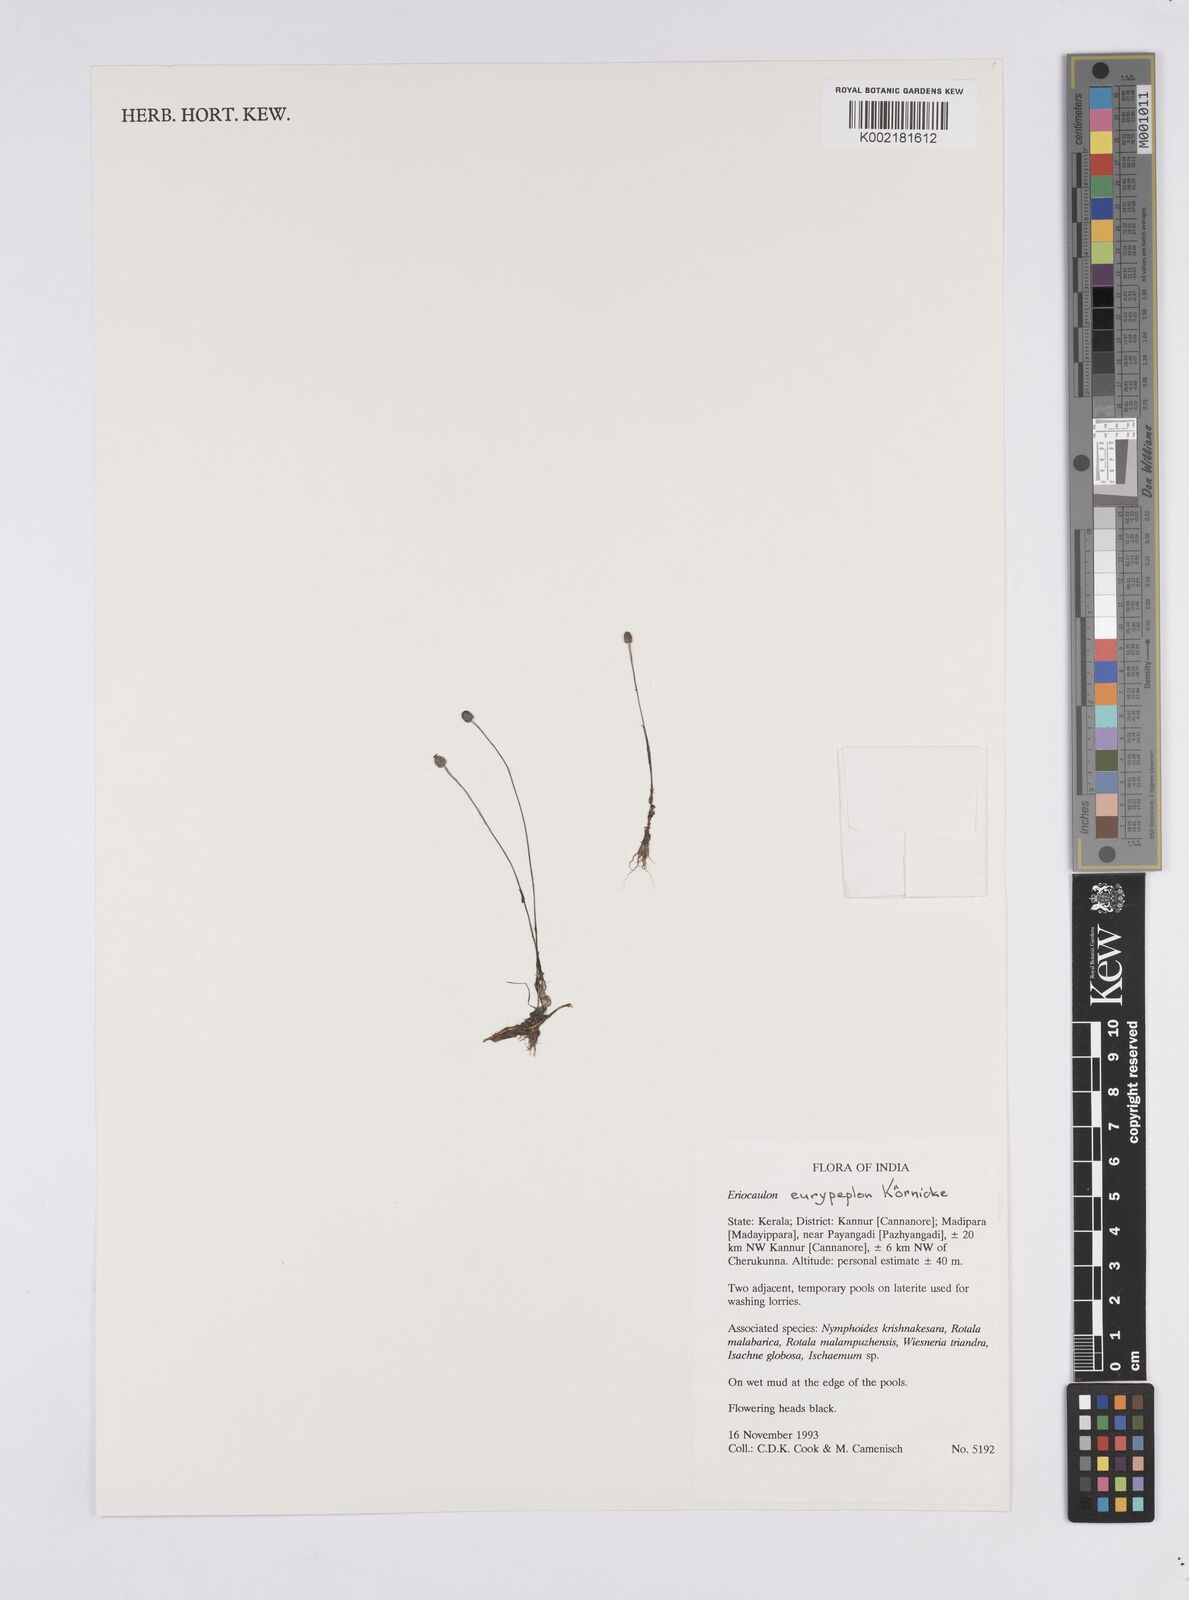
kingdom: Plantae
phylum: Tracheophyta
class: Liliopsida
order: Poales
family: Eriocaulaceae
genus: Eriocaulon
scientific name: Eriocaulon eurypeplon
